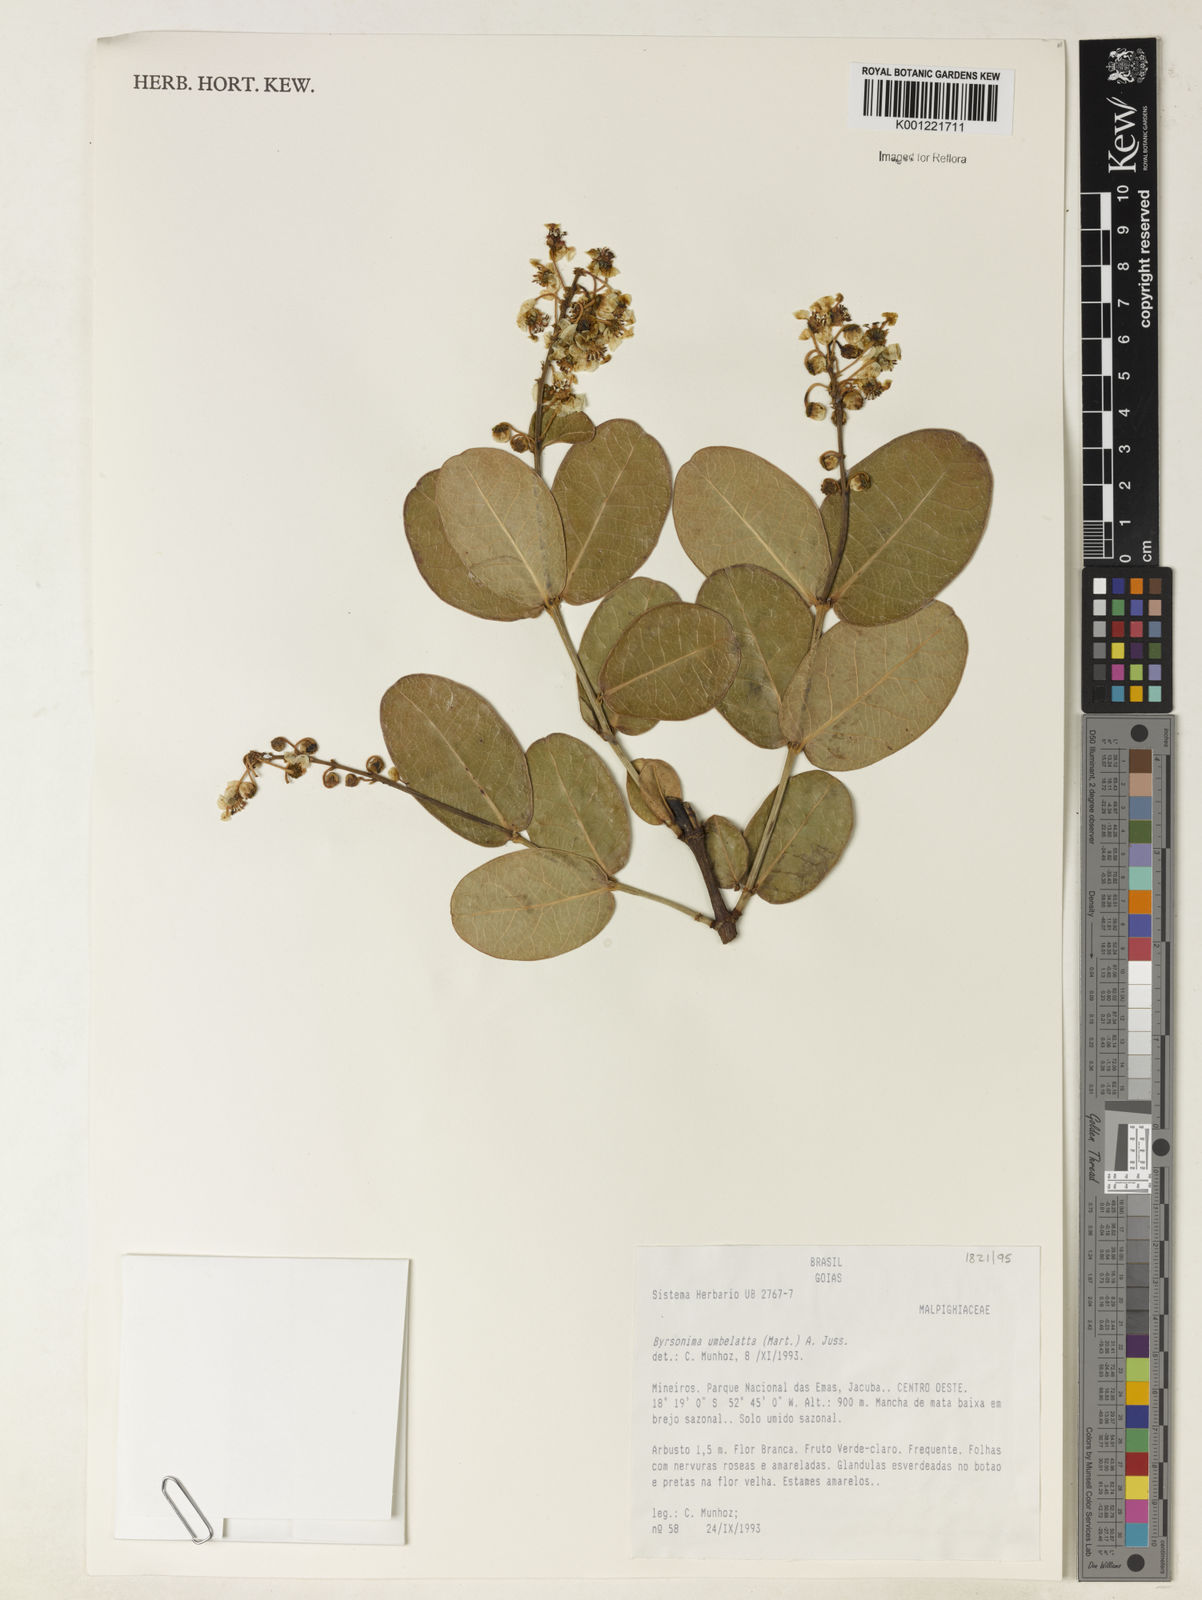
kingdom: Plantae
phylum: Tracheophyta
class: Magnoliopsida
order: Malpighiales
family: Malpighiaceae
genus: Byrsonima
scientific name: Byrsonima umbellata
